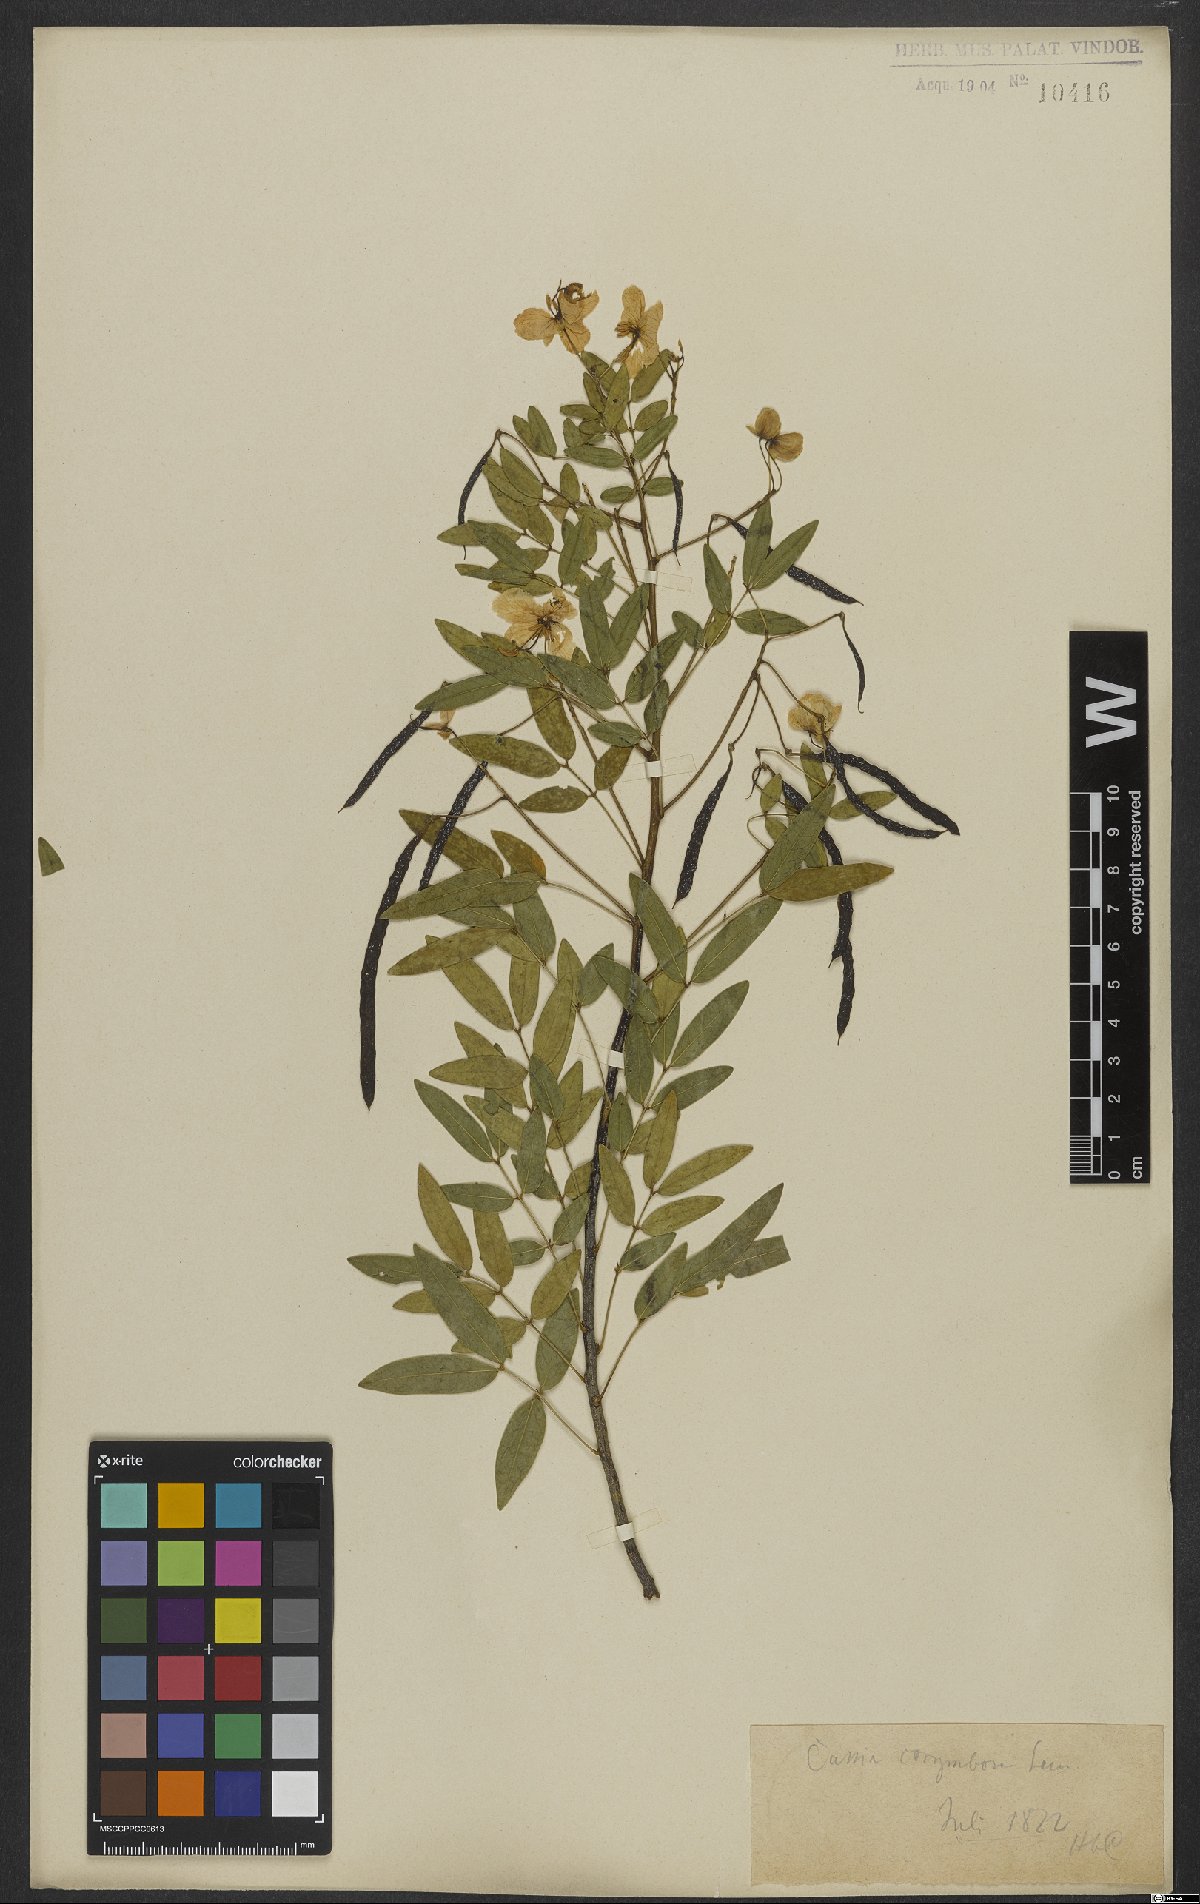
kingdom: Plantae
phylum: Tracheophyta
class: Magnoliopsida
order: Fabales
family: Fabaceae
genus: Senna
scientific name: Senna corymbosa
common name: Argentine senna
